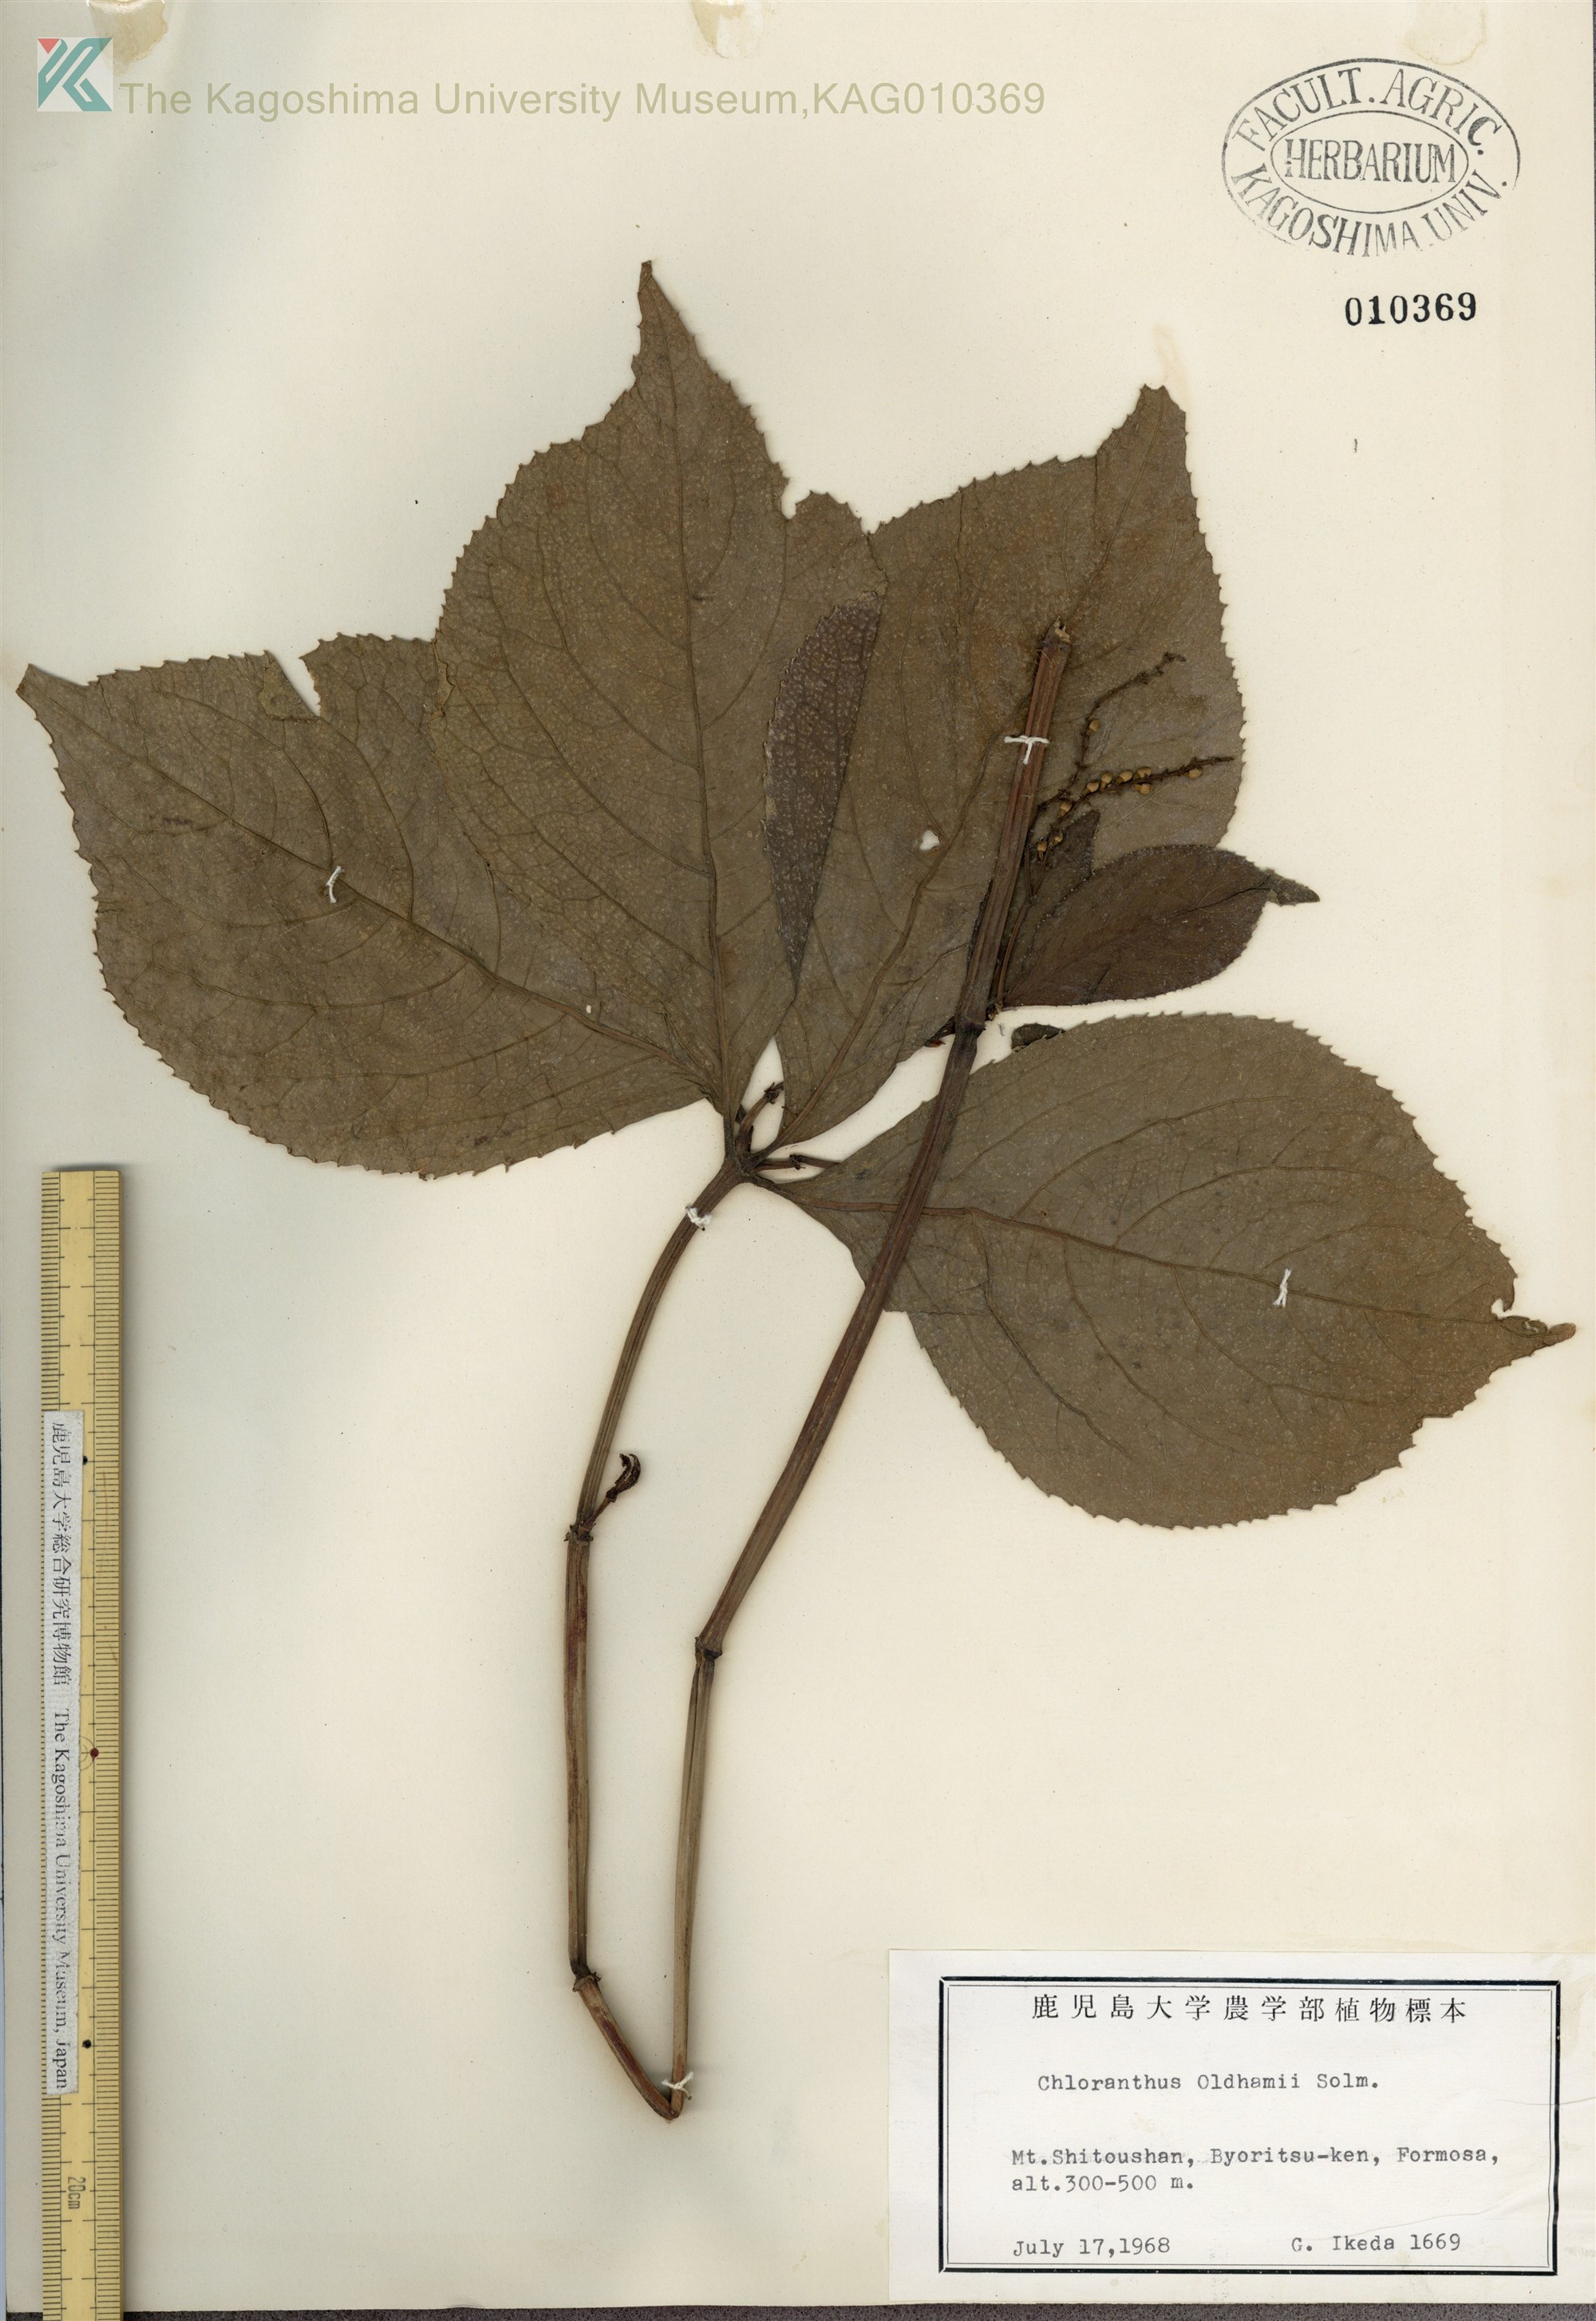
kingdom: Plantae
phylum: Tracheophyta
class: Magnoliopsida
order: Chloranthales
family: Chloranthaceae
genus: Chloranthus
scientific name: Chloranthus oldhamii
